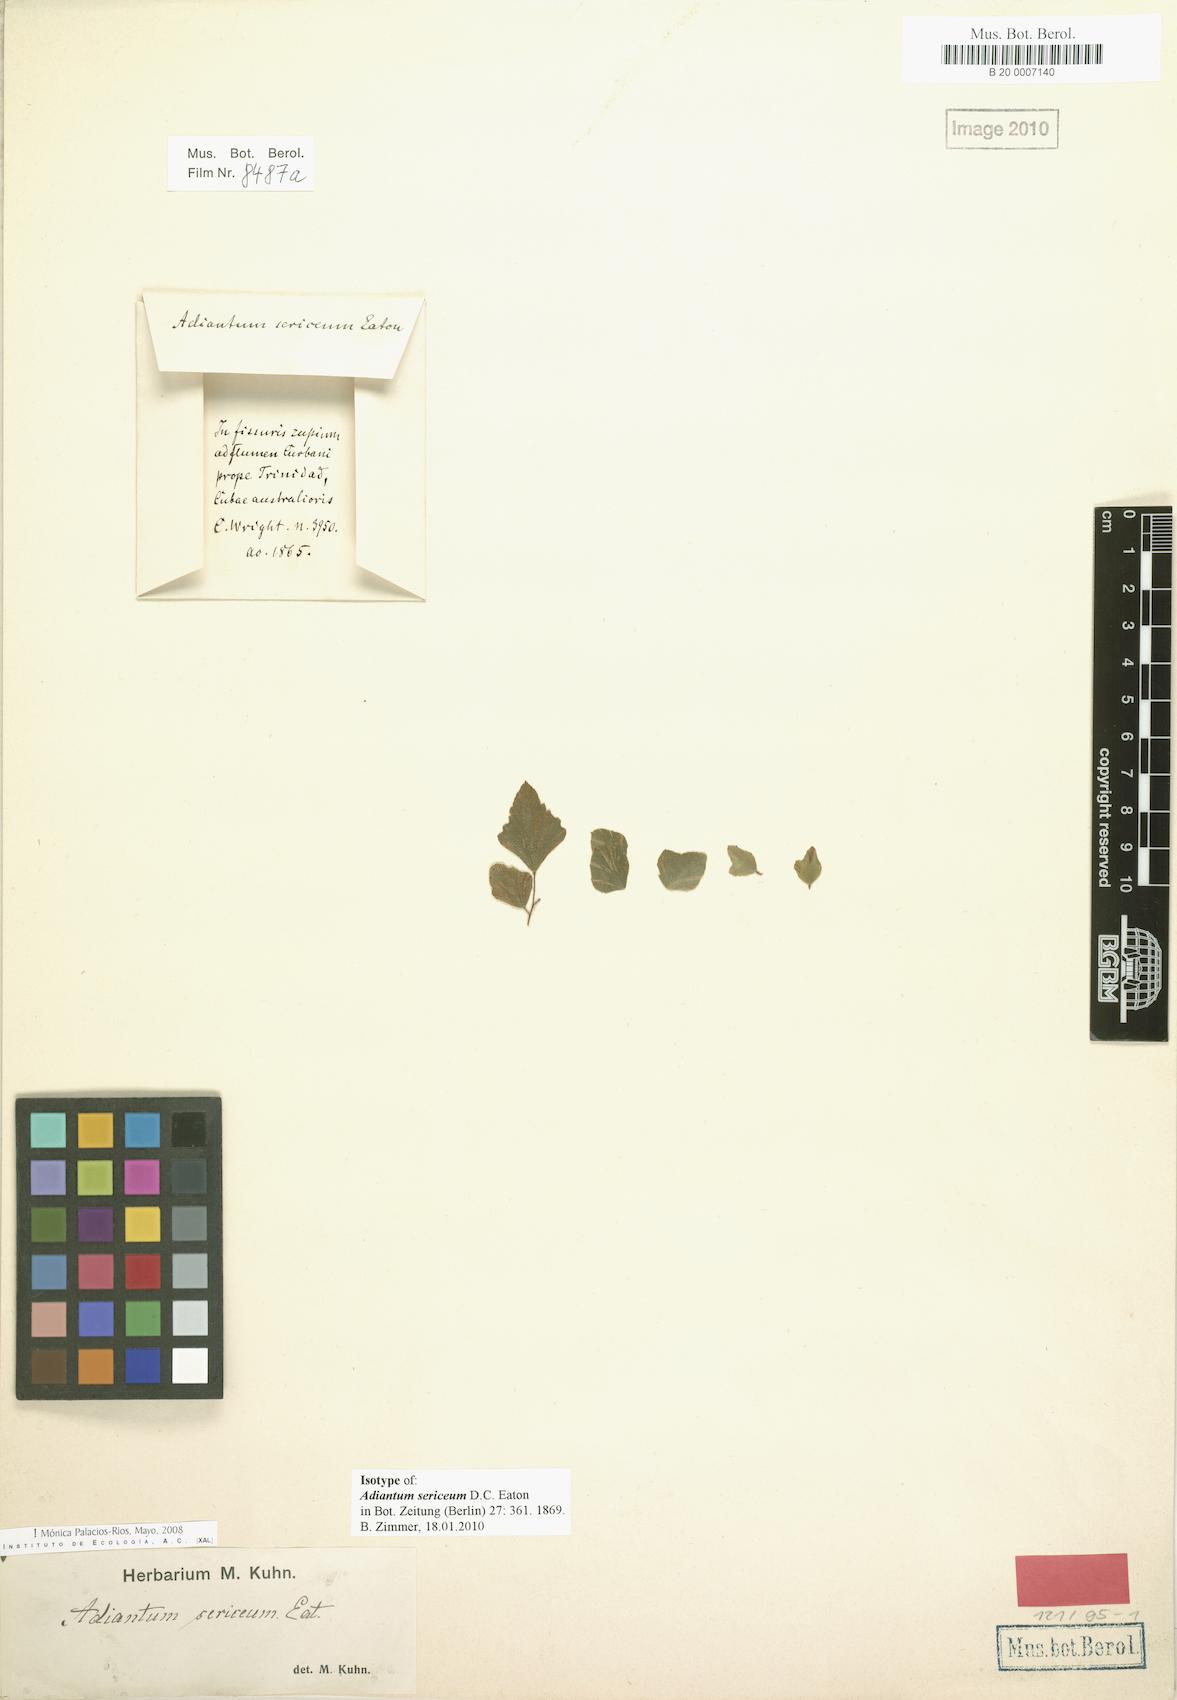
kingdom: Plantae
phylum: Tracheophyta
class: Polypodiopsida
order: Polypodiales
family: Pteridaceae
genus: Adiantum
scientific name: Adiantum sericeum
